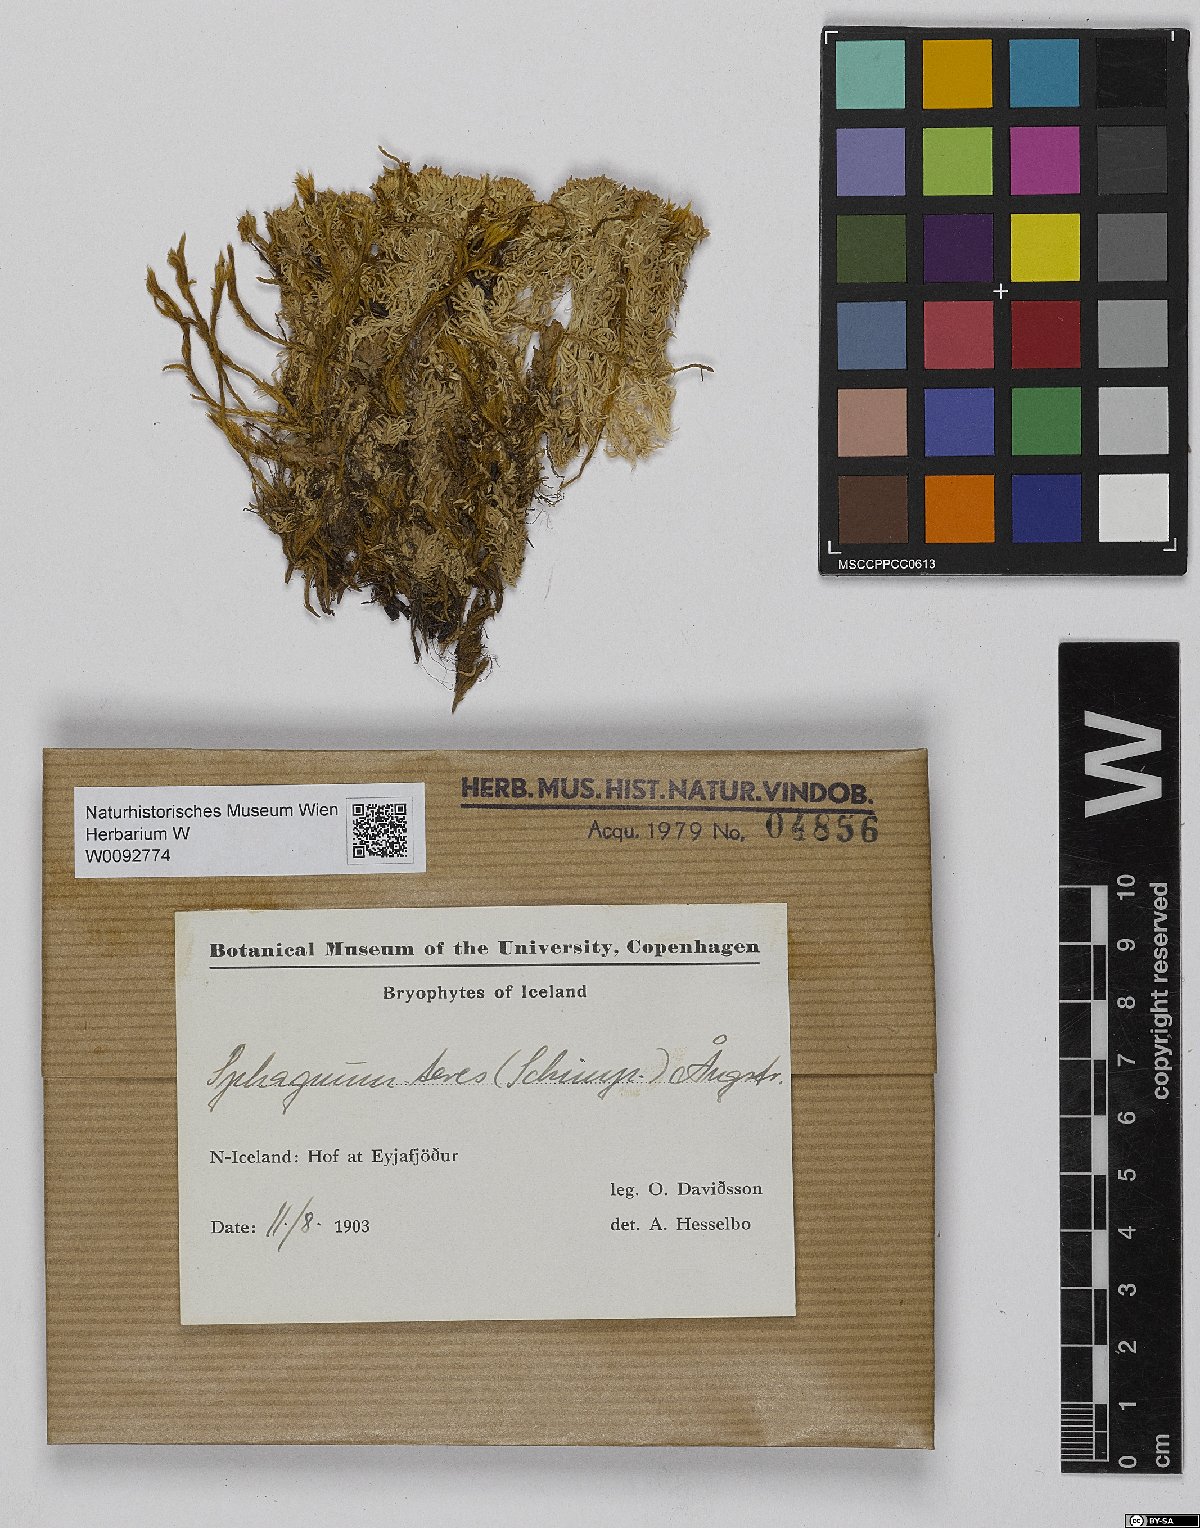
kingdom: Plantae
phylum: Bryophyta
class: Sphagnopsida
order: Sphagnales
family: Sphagnaceae
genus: Sphagnum
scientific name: Sphagnum teres
